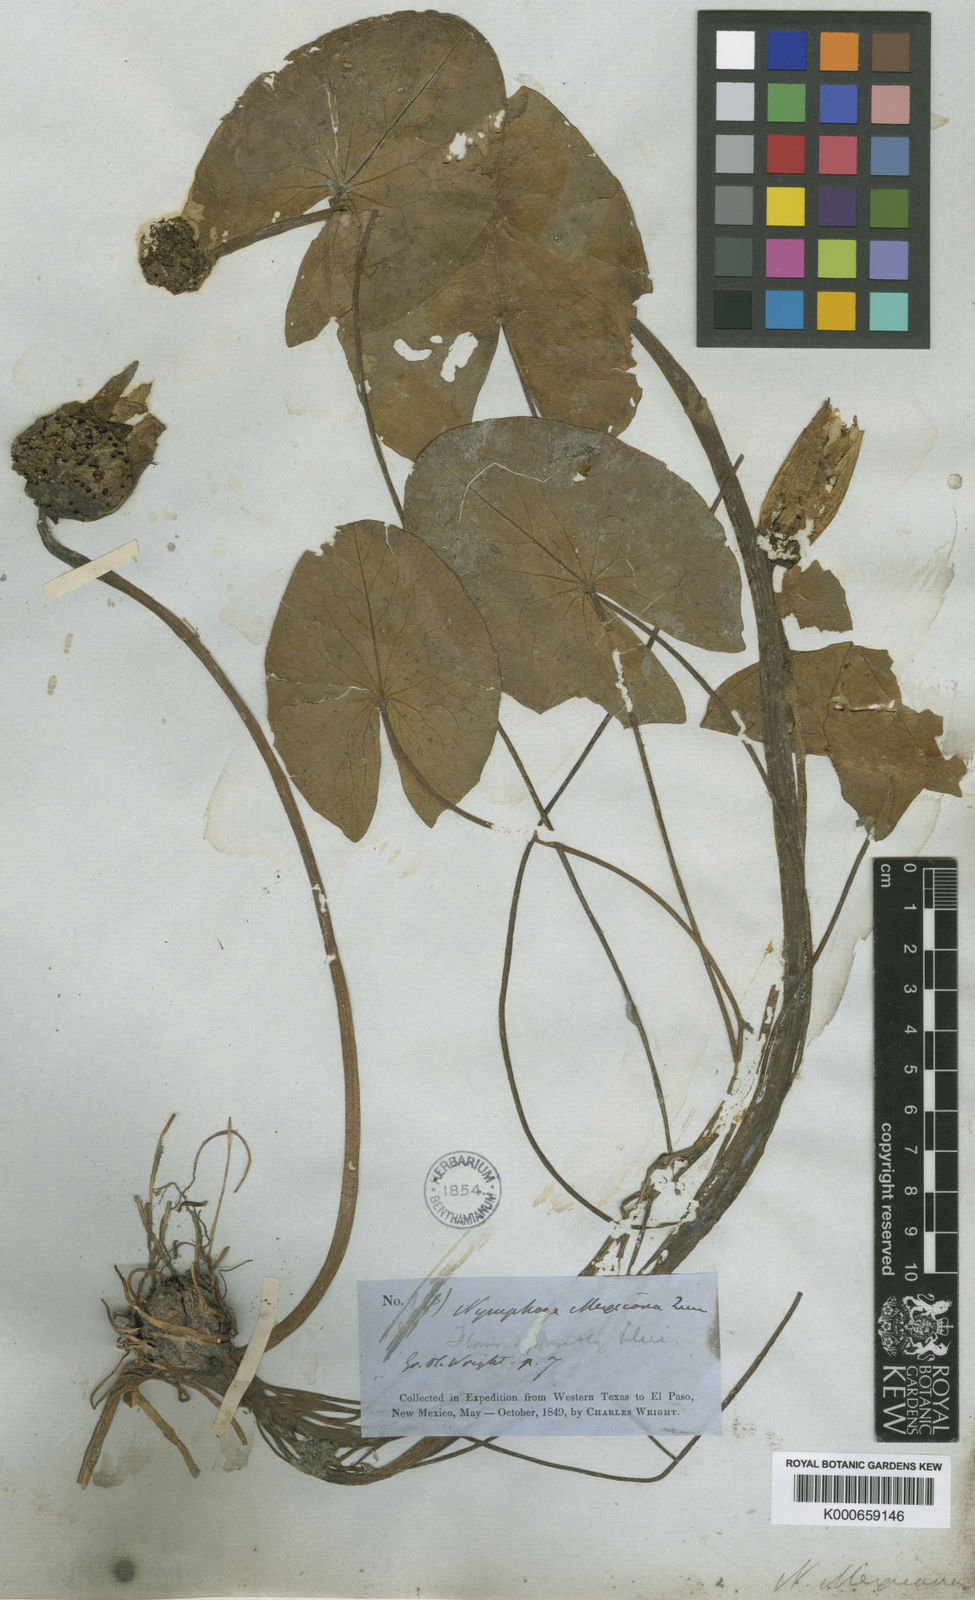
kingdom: Plantae
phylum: Tracheophyta
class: Magnoliopsida
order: Nymphaeales
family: Nymphaeaceae
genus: Nymphaea
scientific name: Nymphaea mexicana
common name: Banana water-lily
